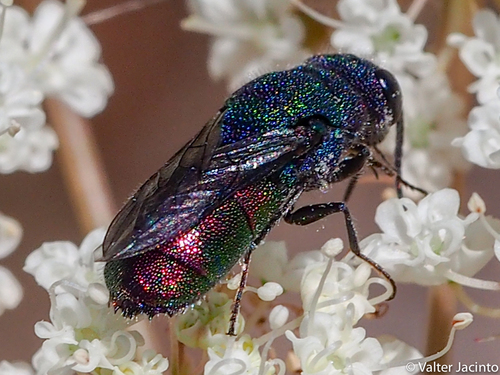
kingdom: Animalia
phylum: Arthropoda
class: Insecta
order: Hymenoptera
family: Chrysididae
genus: Chrysis
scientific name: Chrysis sexdentata
